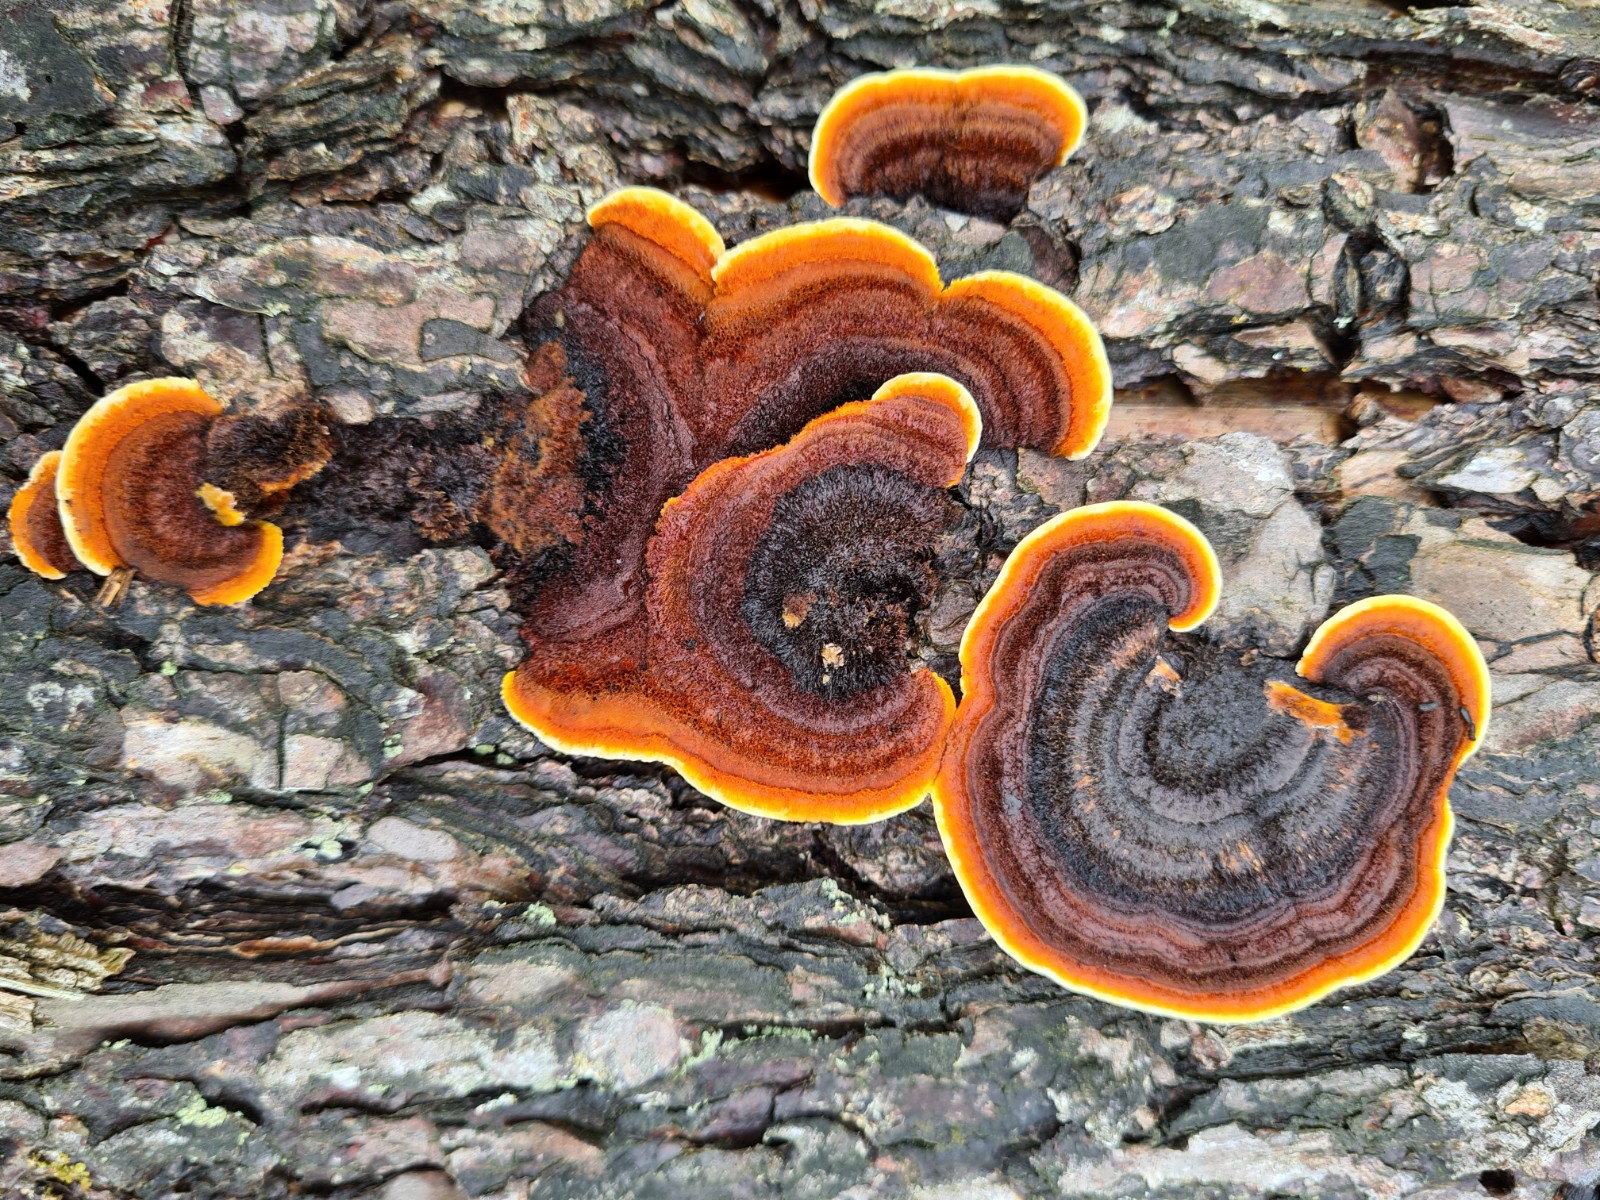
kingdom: Fungi
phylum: Basidiomycota
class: Agaricomycetes
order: Gloeophyllales
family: Gloeophyllaceae
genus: Gloeophyllum
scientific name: Gloeophyllum sepiarium
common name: fyrre-korkhat
